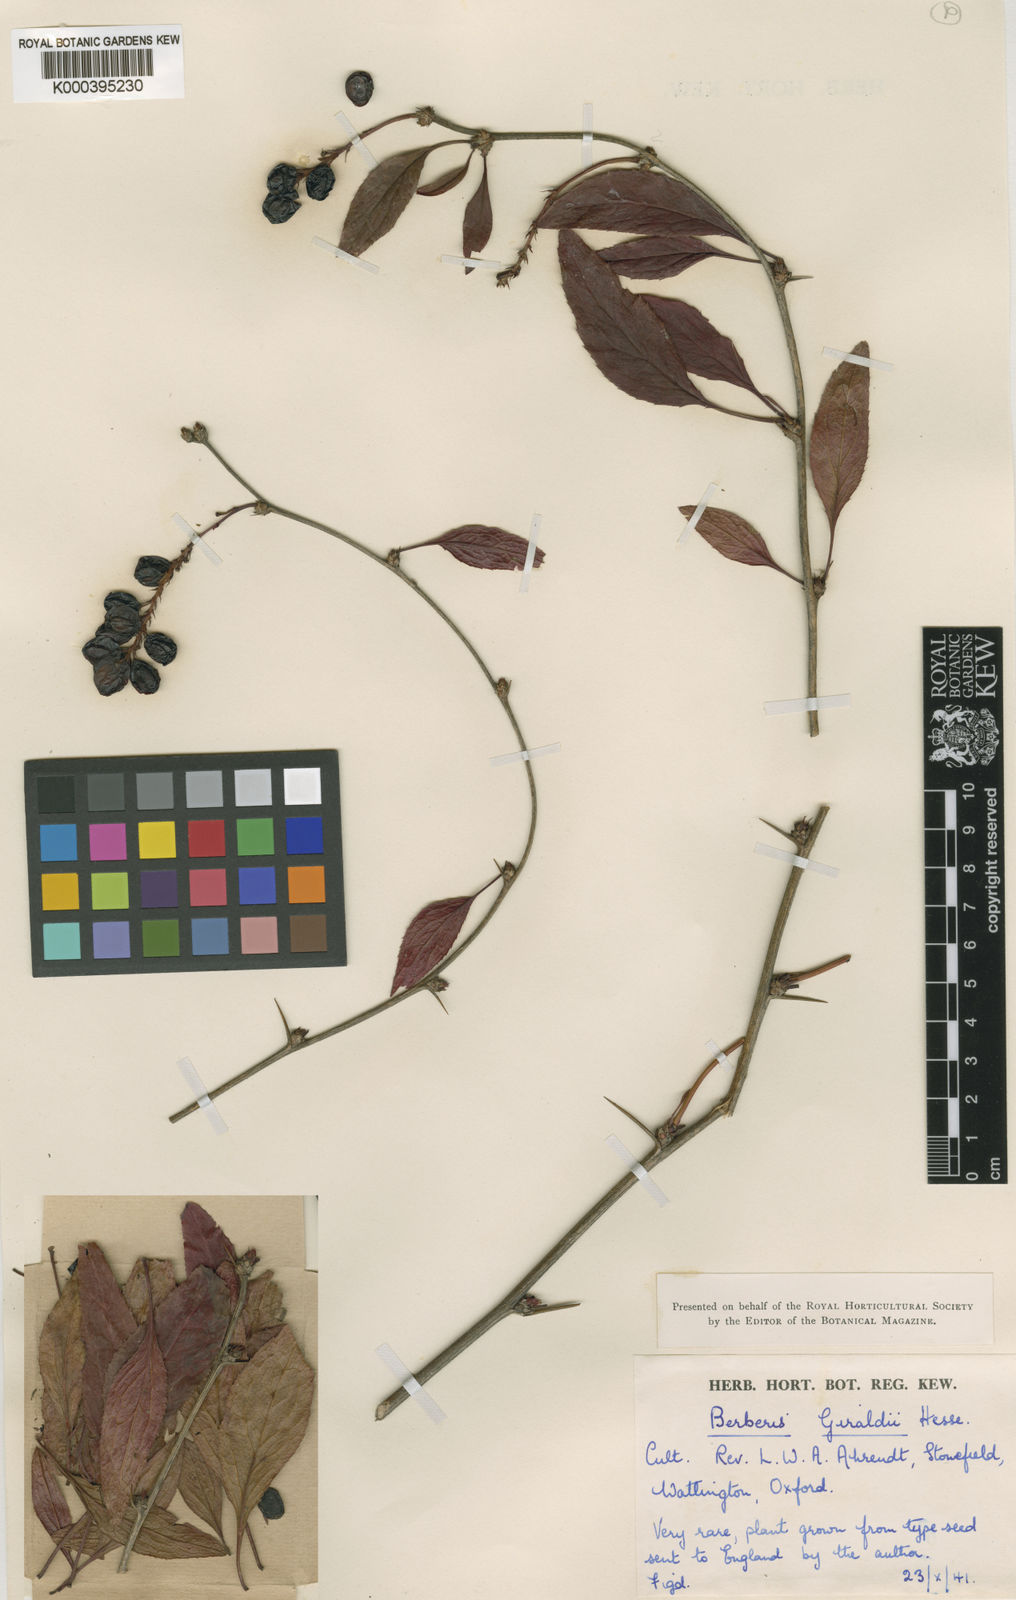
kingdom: Plantae
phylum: Tracheophyta
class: Magnoliopsida
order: Ranunculales
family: Berberidaceae
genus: Berberis
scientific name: Berberis salicaria
